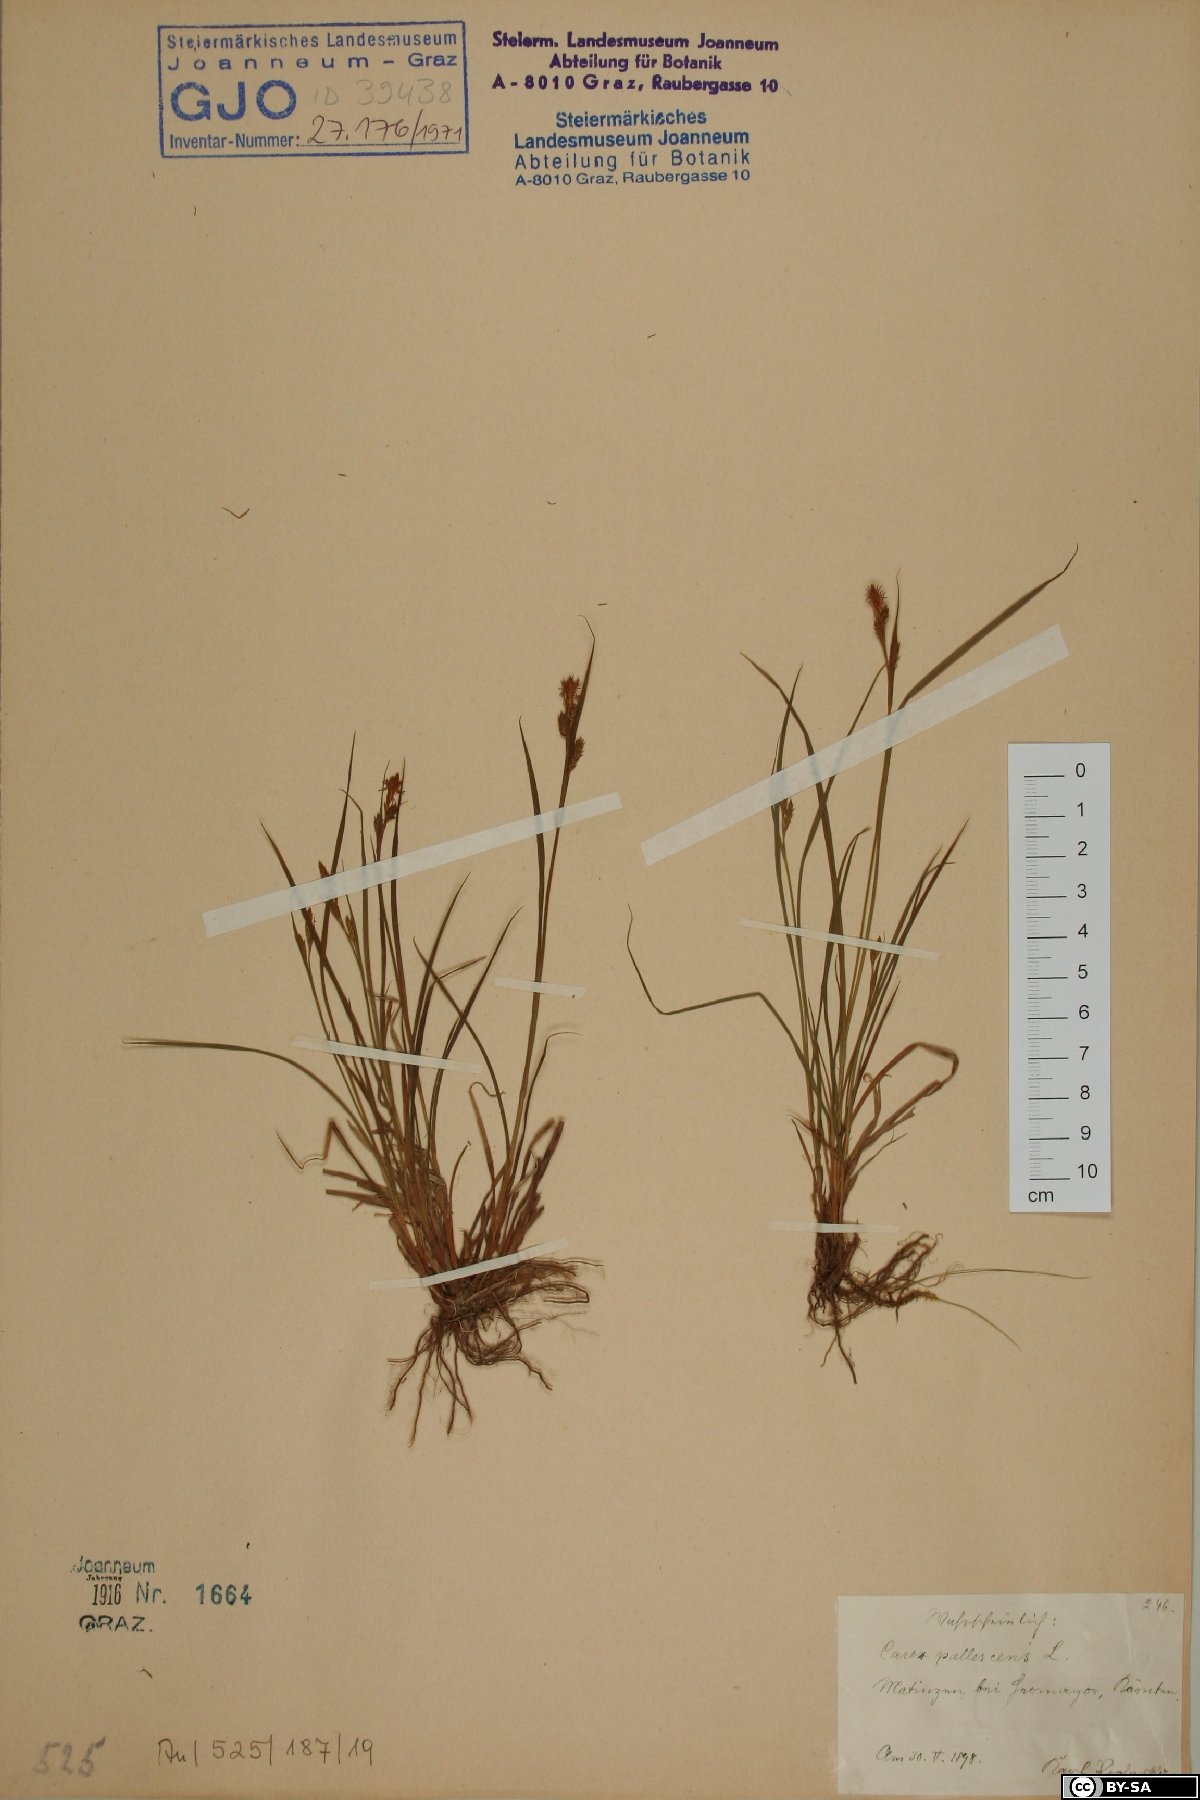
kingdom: Plantae
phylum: Tracheophyta
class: Liliopsida
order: Poales
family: Cyperaceae
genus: Carex
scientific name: Carex pallescens
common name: Pale sedge
